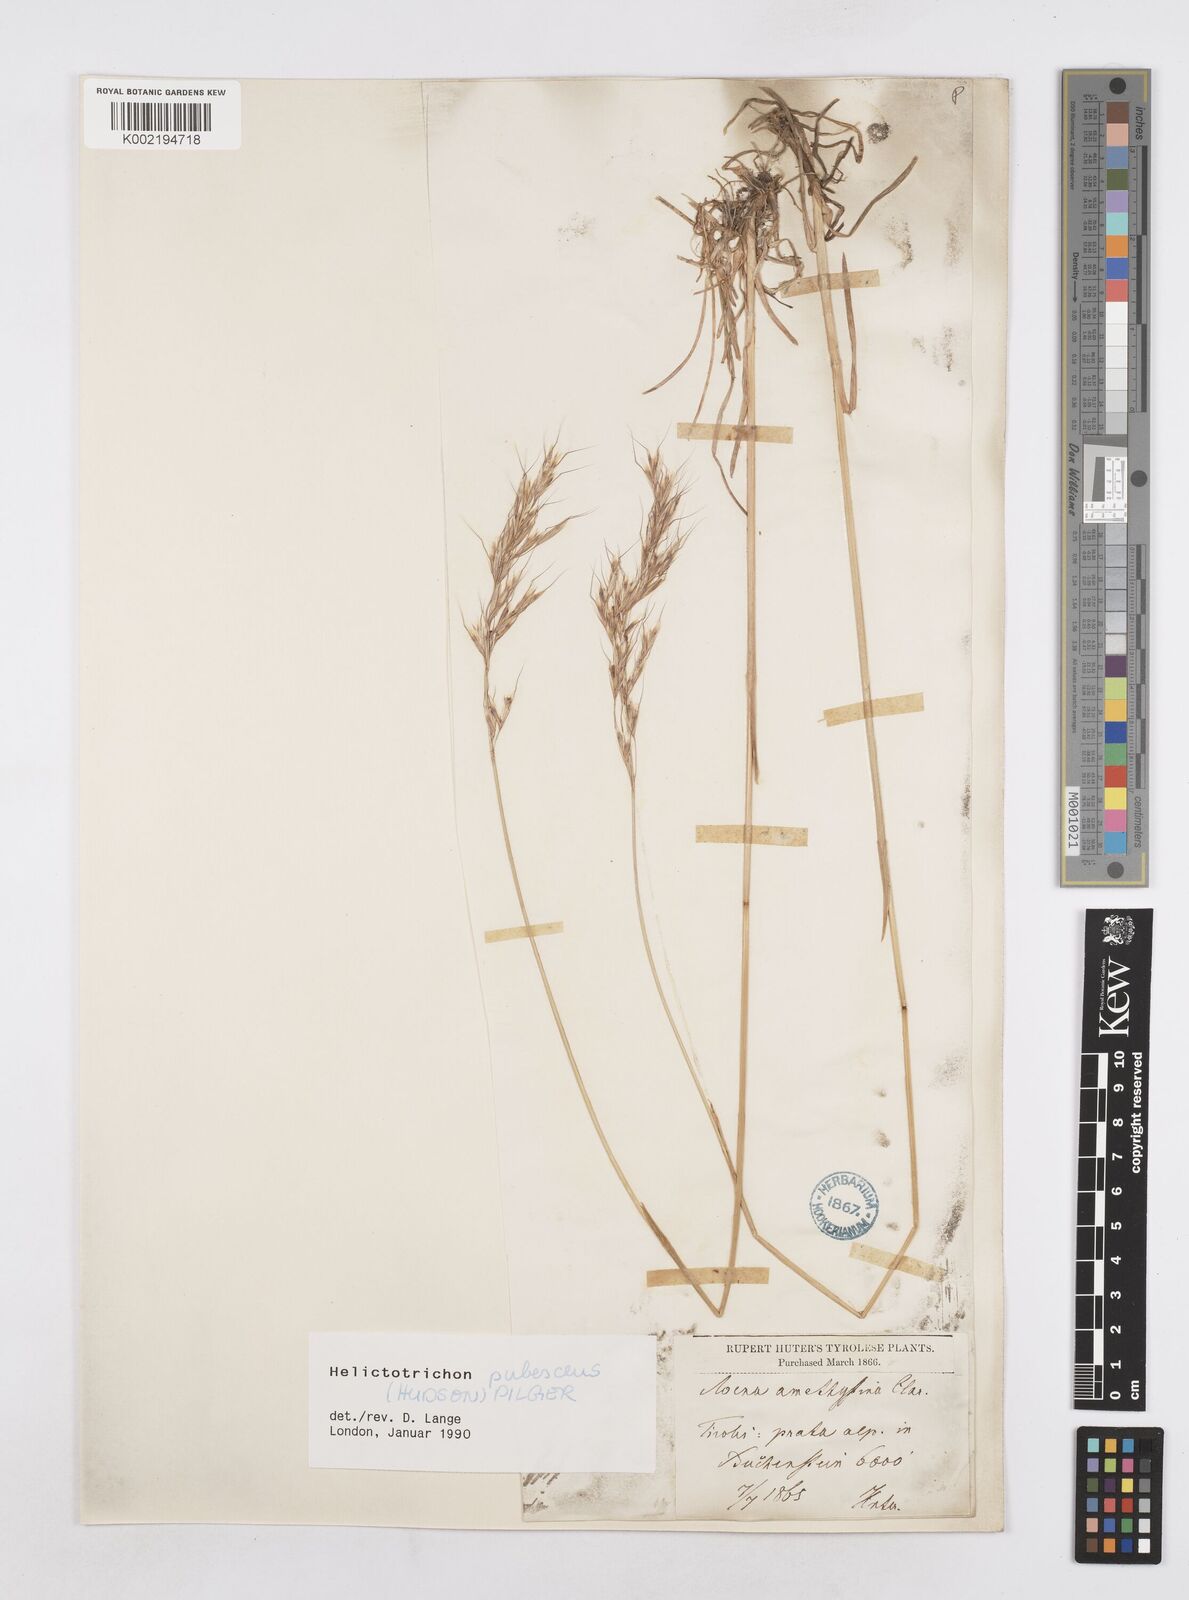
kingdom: Plantae
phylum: Tracheophyta
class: Liliopsida
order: Poales
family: Poaceae
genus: Avenula
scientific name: Avenula pubescens
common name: Downy alpine oatgrass
